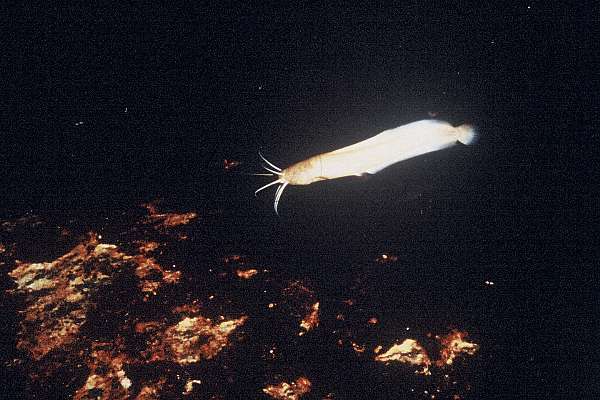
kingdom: Animalia
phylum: Chordata
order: Siluriformes
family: Clariidae
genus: Clarias
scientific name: Clarias cavernicola
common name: Cave catfish
